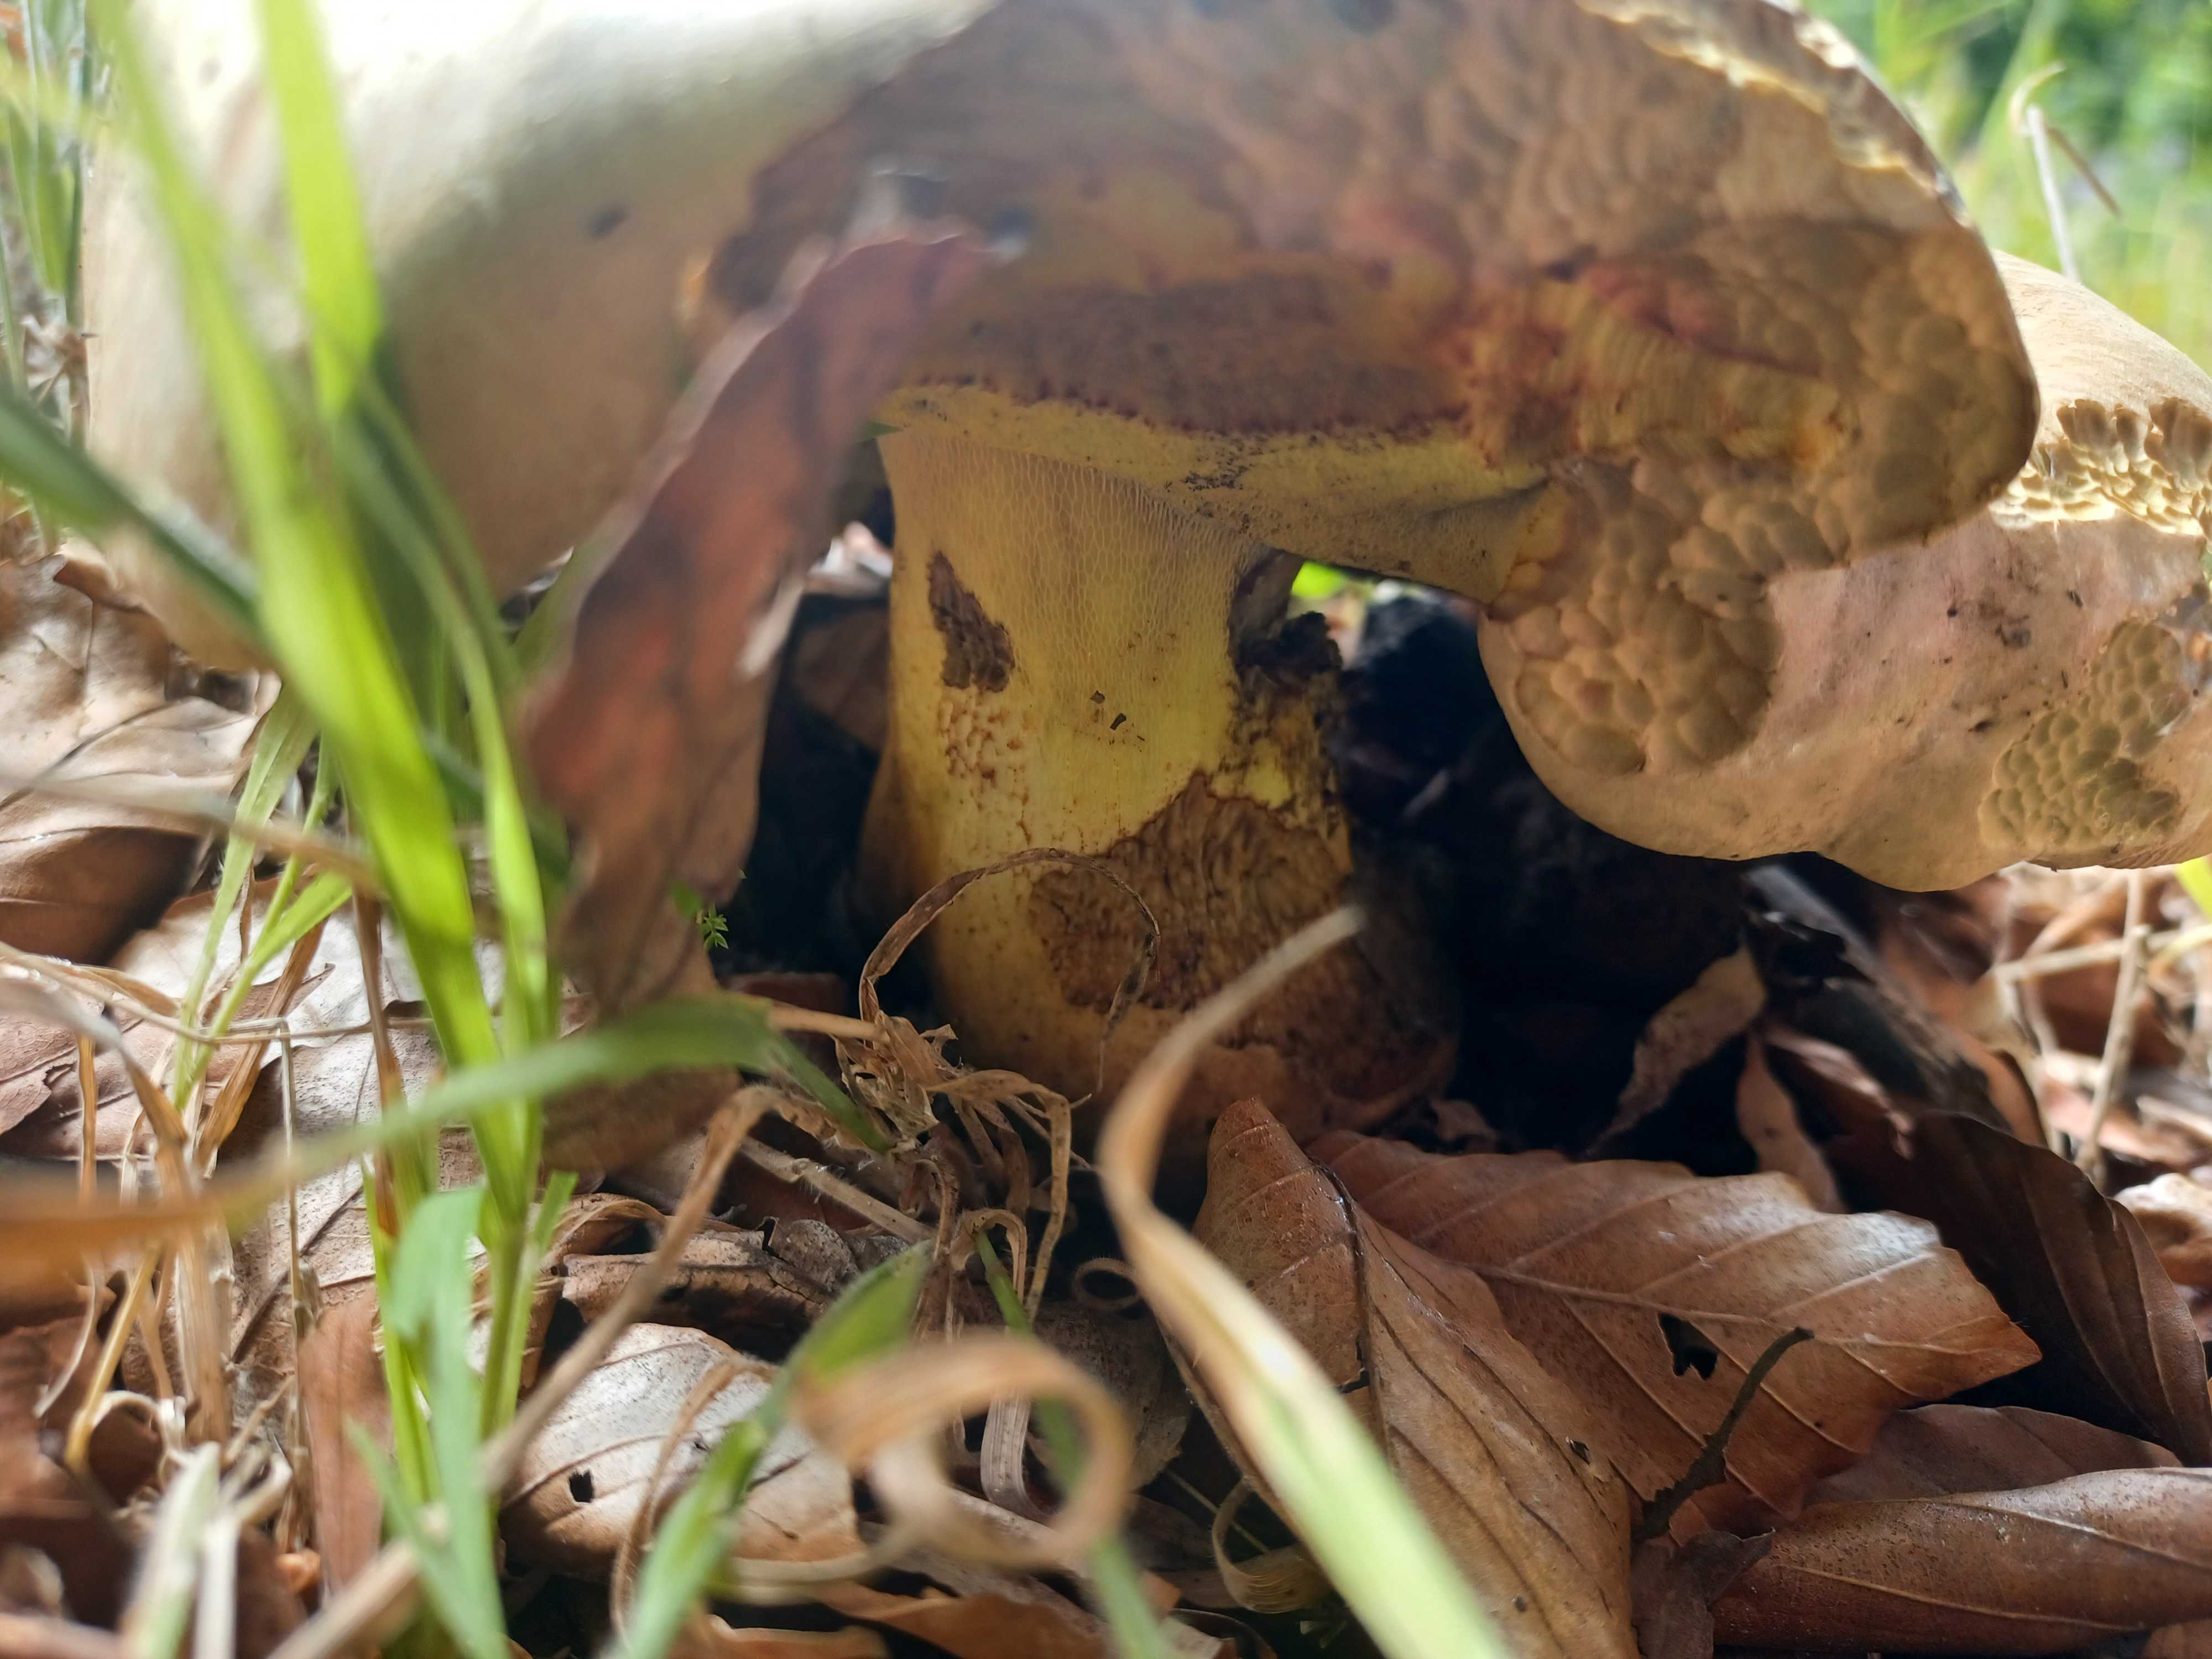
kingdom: Fungi
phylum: Basidiomycota
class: Agaricomycetes
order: Boletales
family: Boletaceae
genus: Neoboletus
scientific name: Neoboletus erythropus
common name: punktstokket indigorørhat
